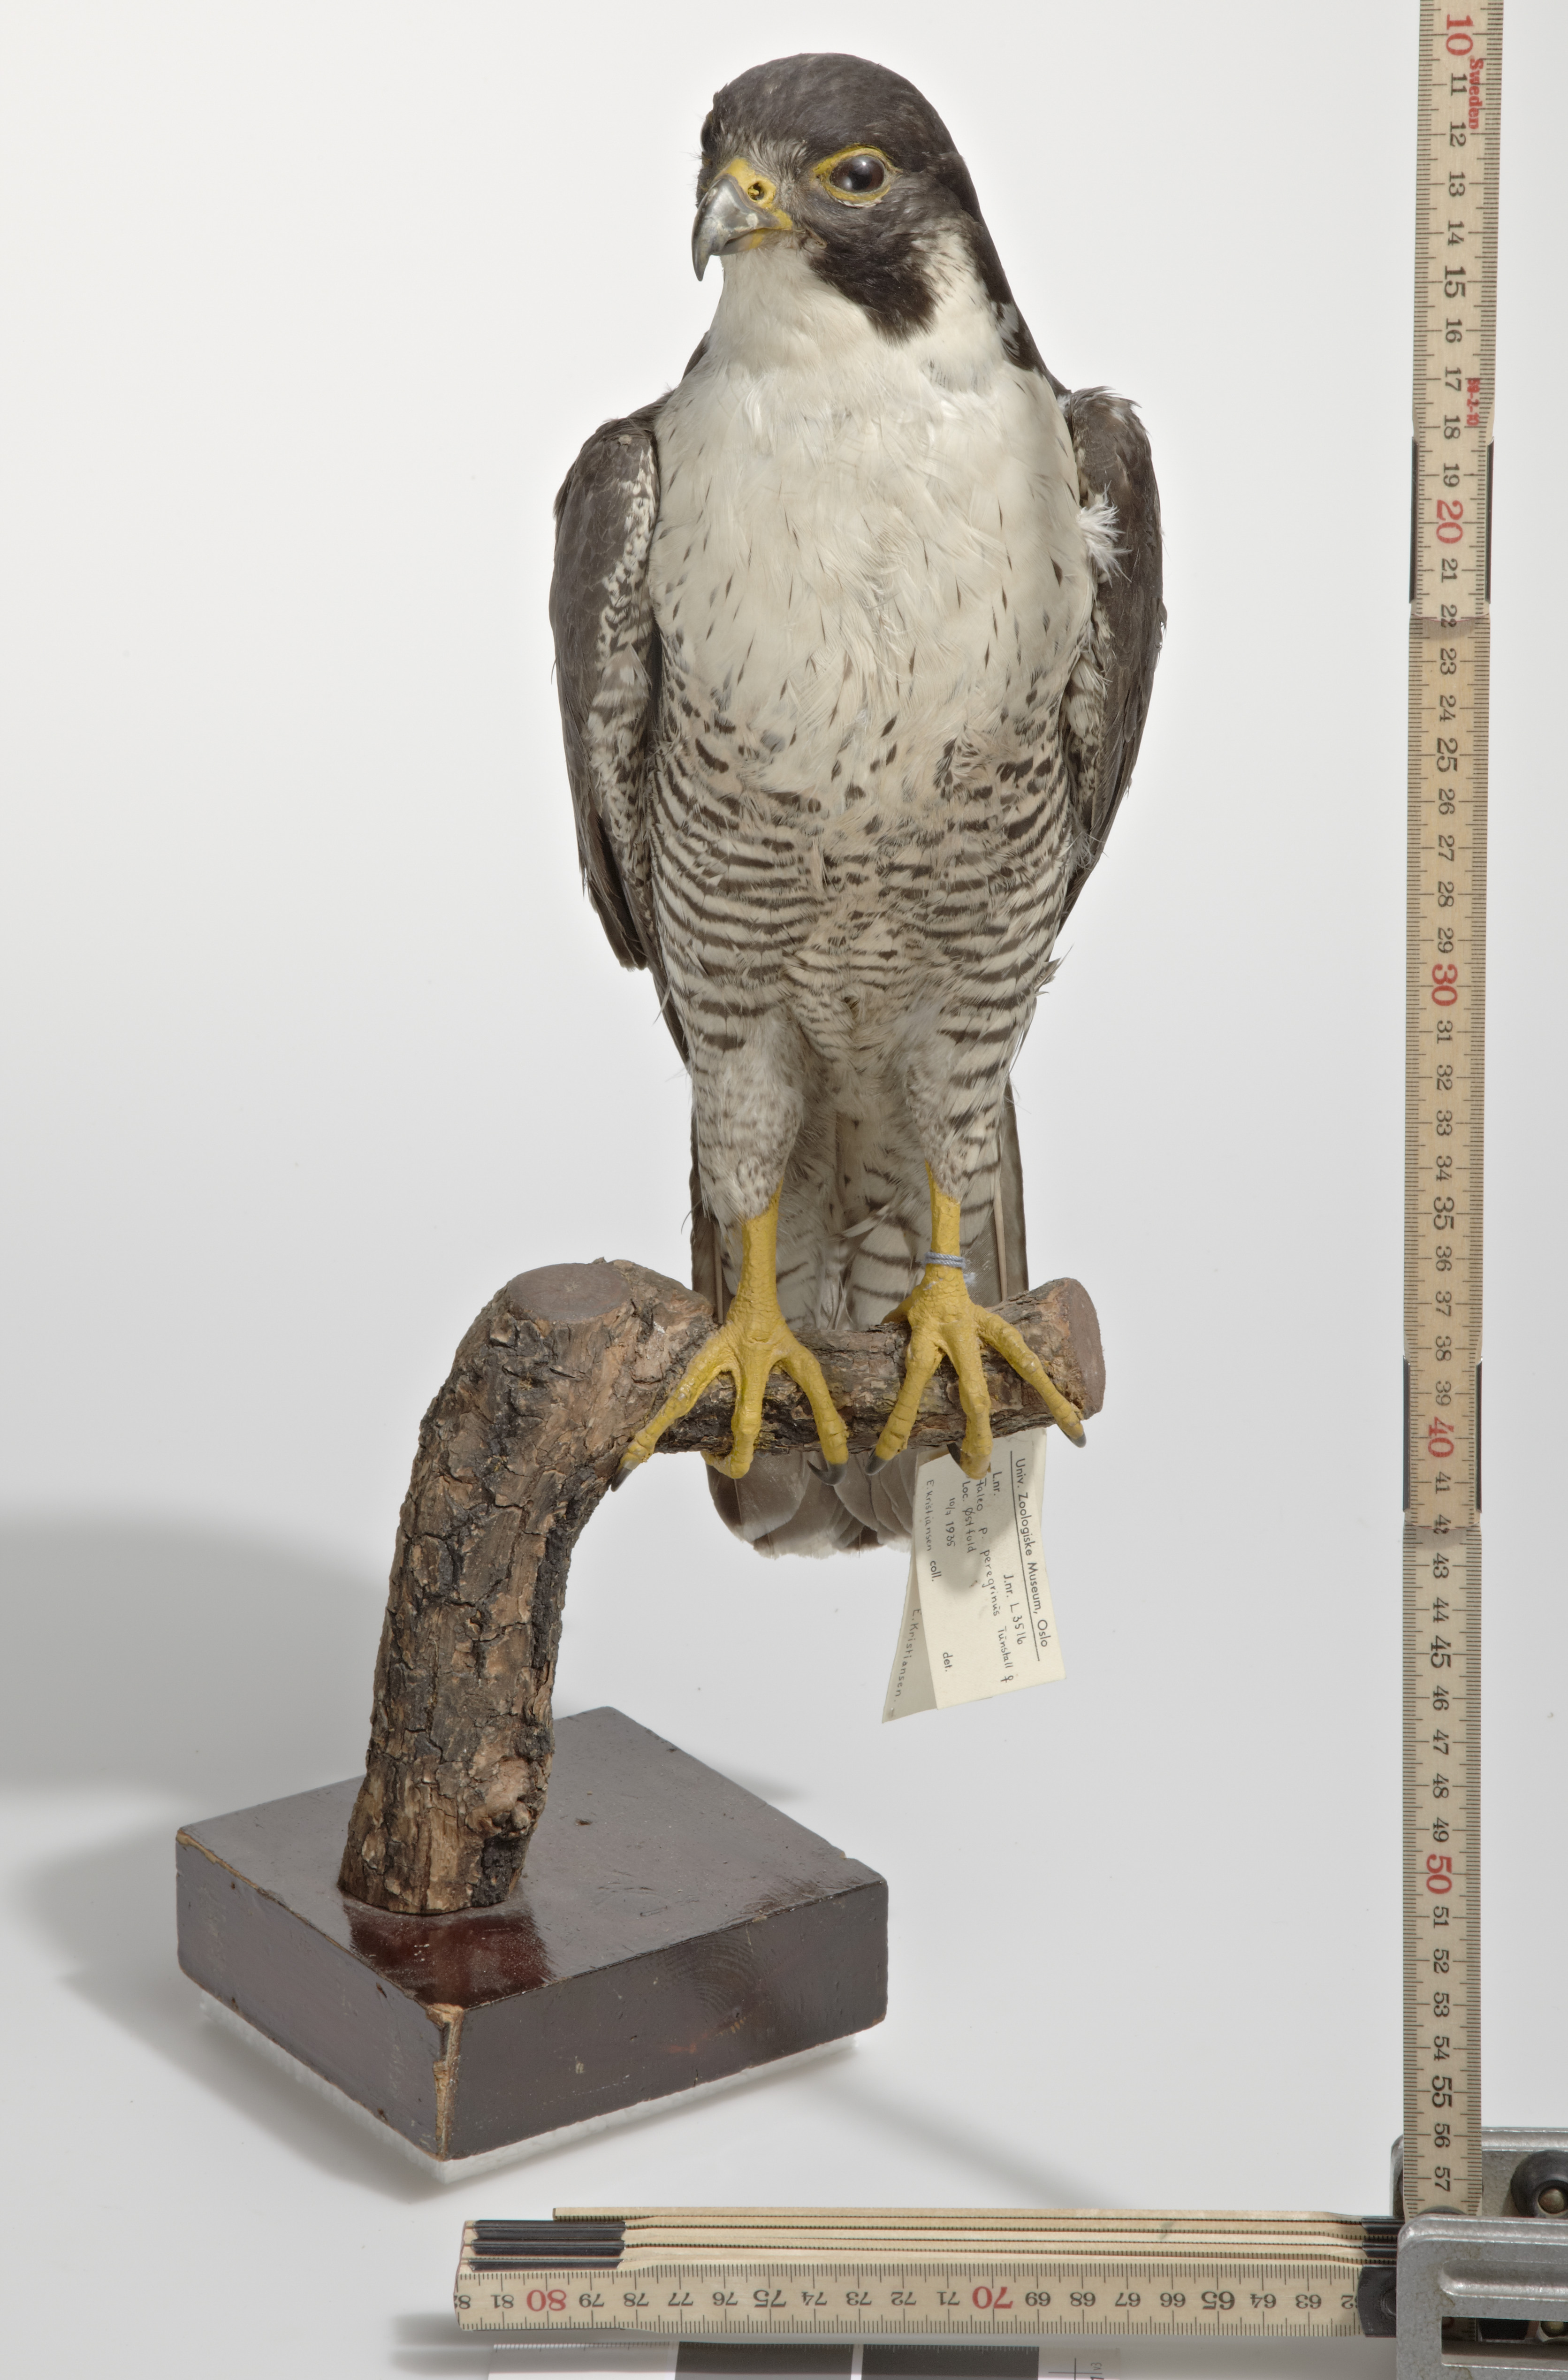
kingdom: Animalia
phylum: Chordata
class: Aves
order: Falconiformes
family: Falconidae
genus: Falco
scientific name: Falco peregrinus
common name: Peregrine falcon
